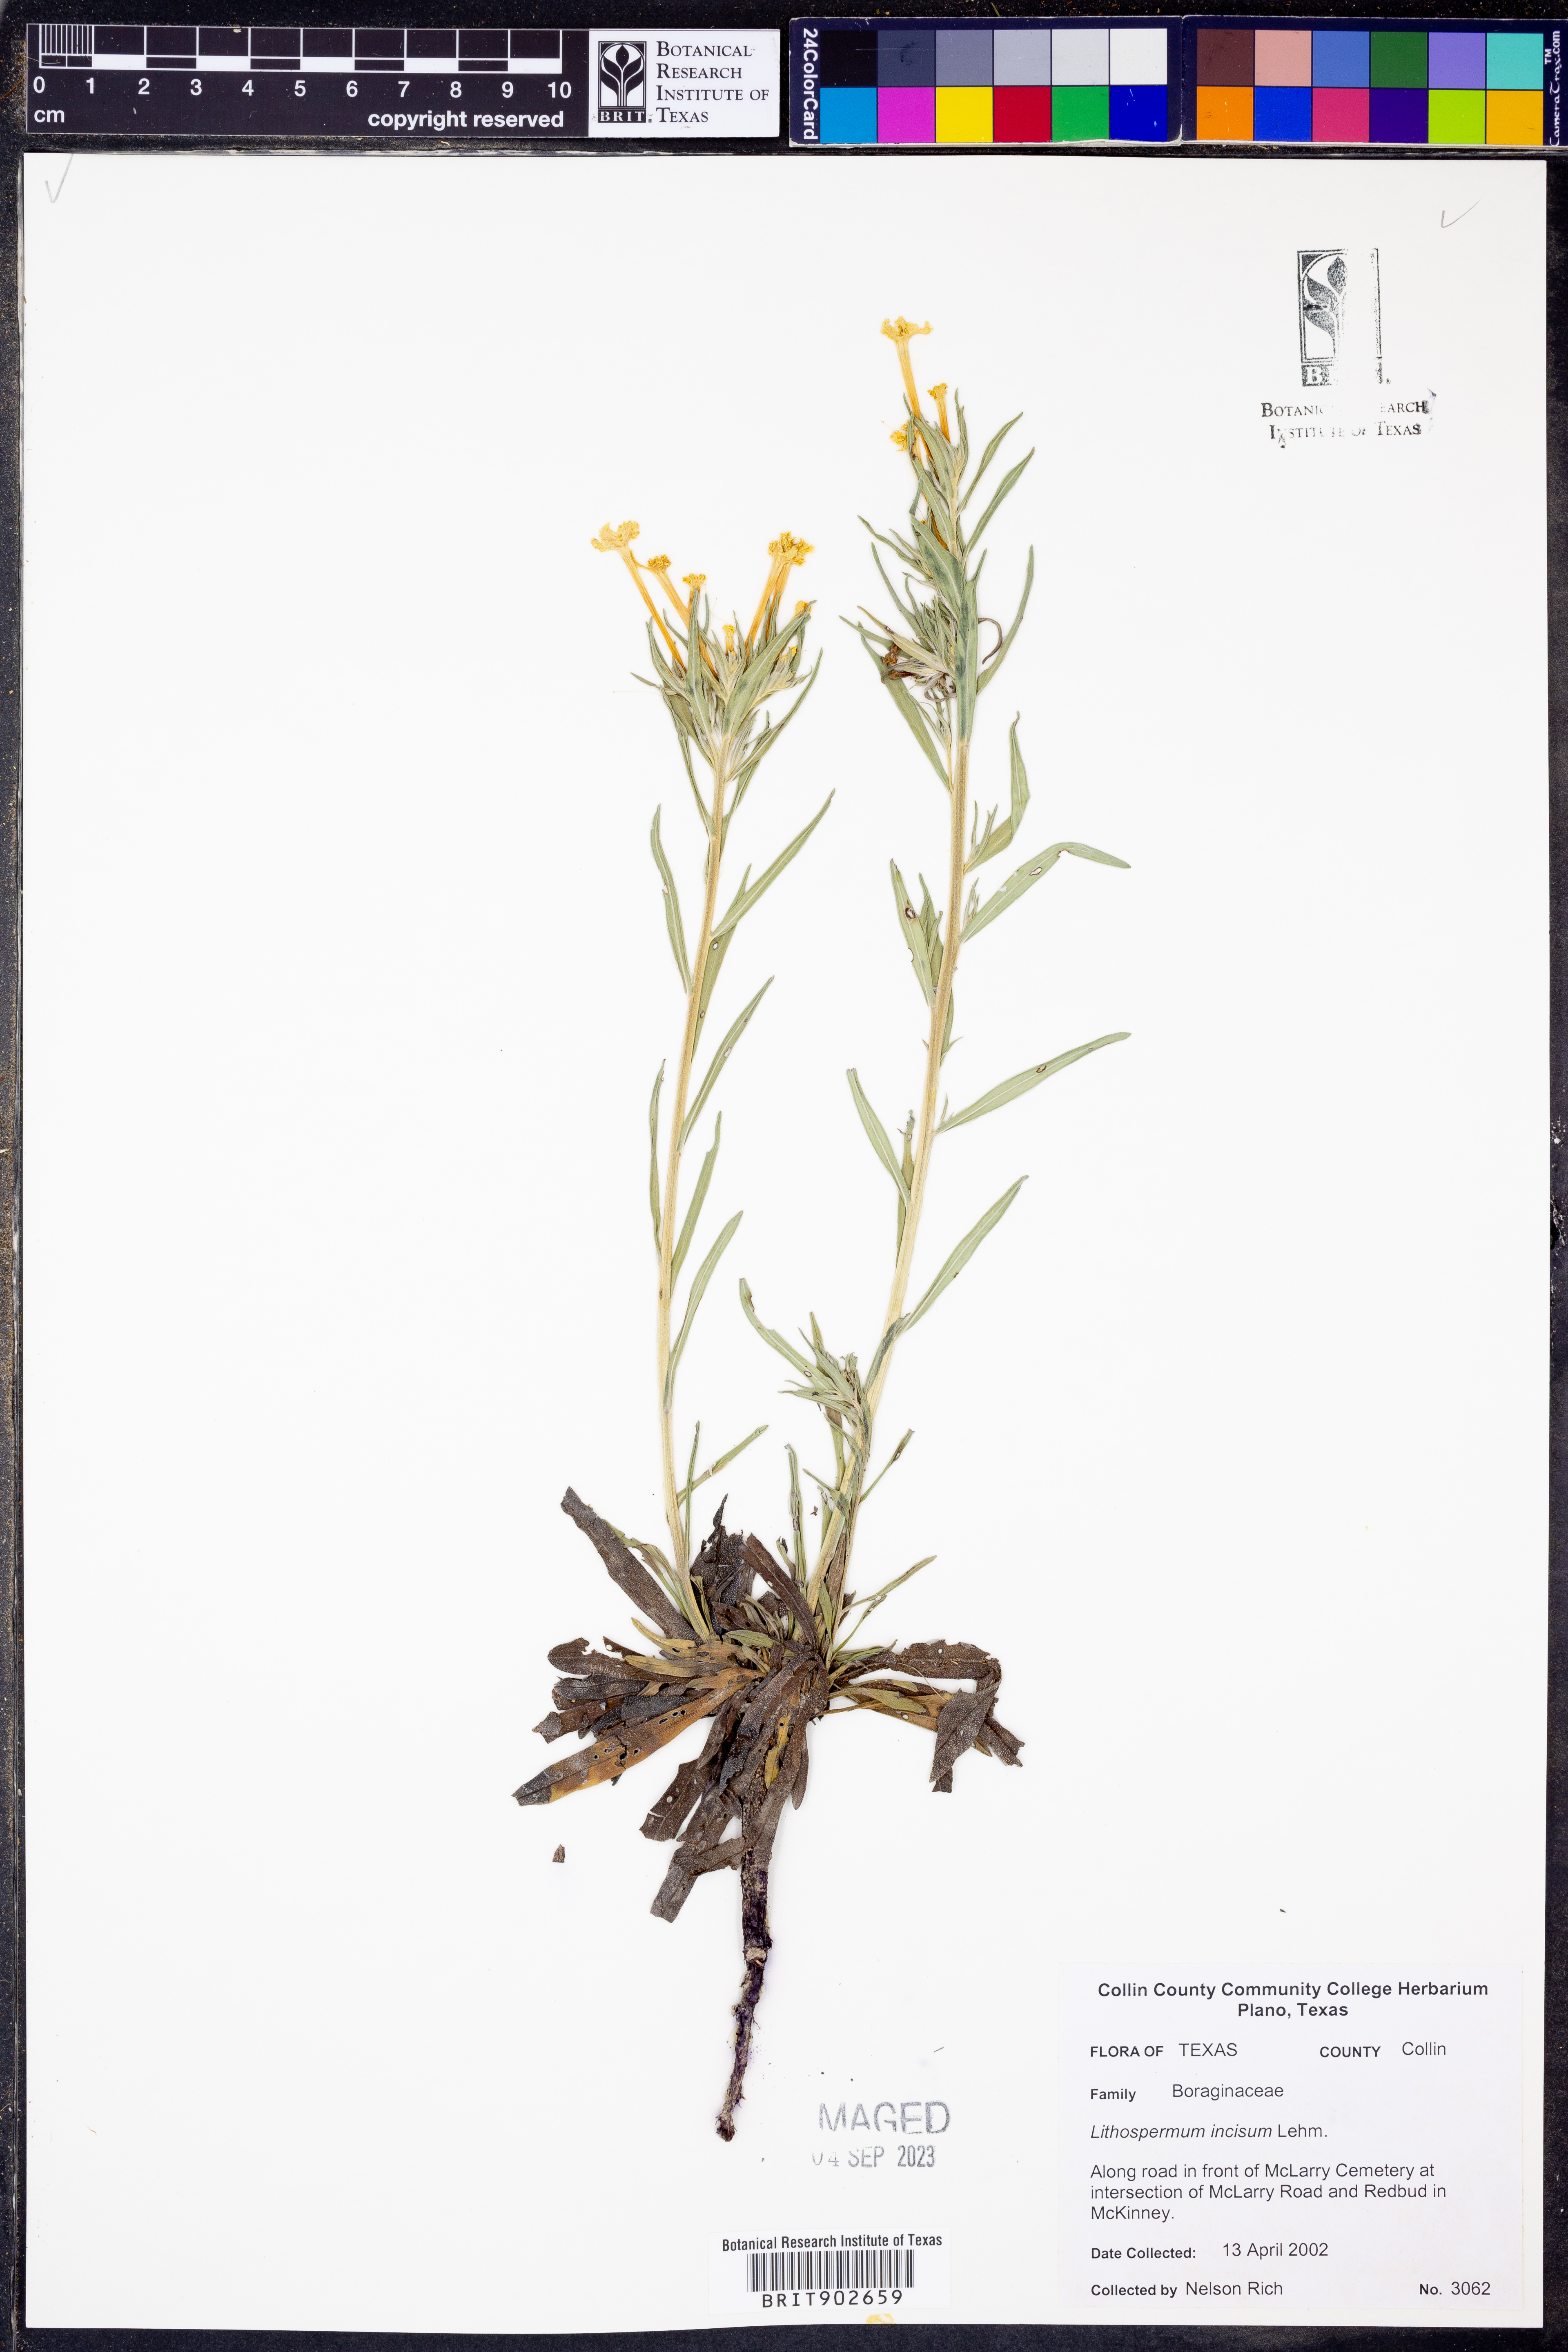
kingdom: Plantae
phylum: Tracheophyta
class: Magnoliopsida
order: Boraginales
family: Boraginaceae
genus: Lithospermum
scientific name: Lithospermum incisum
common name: Fringed gromwell
